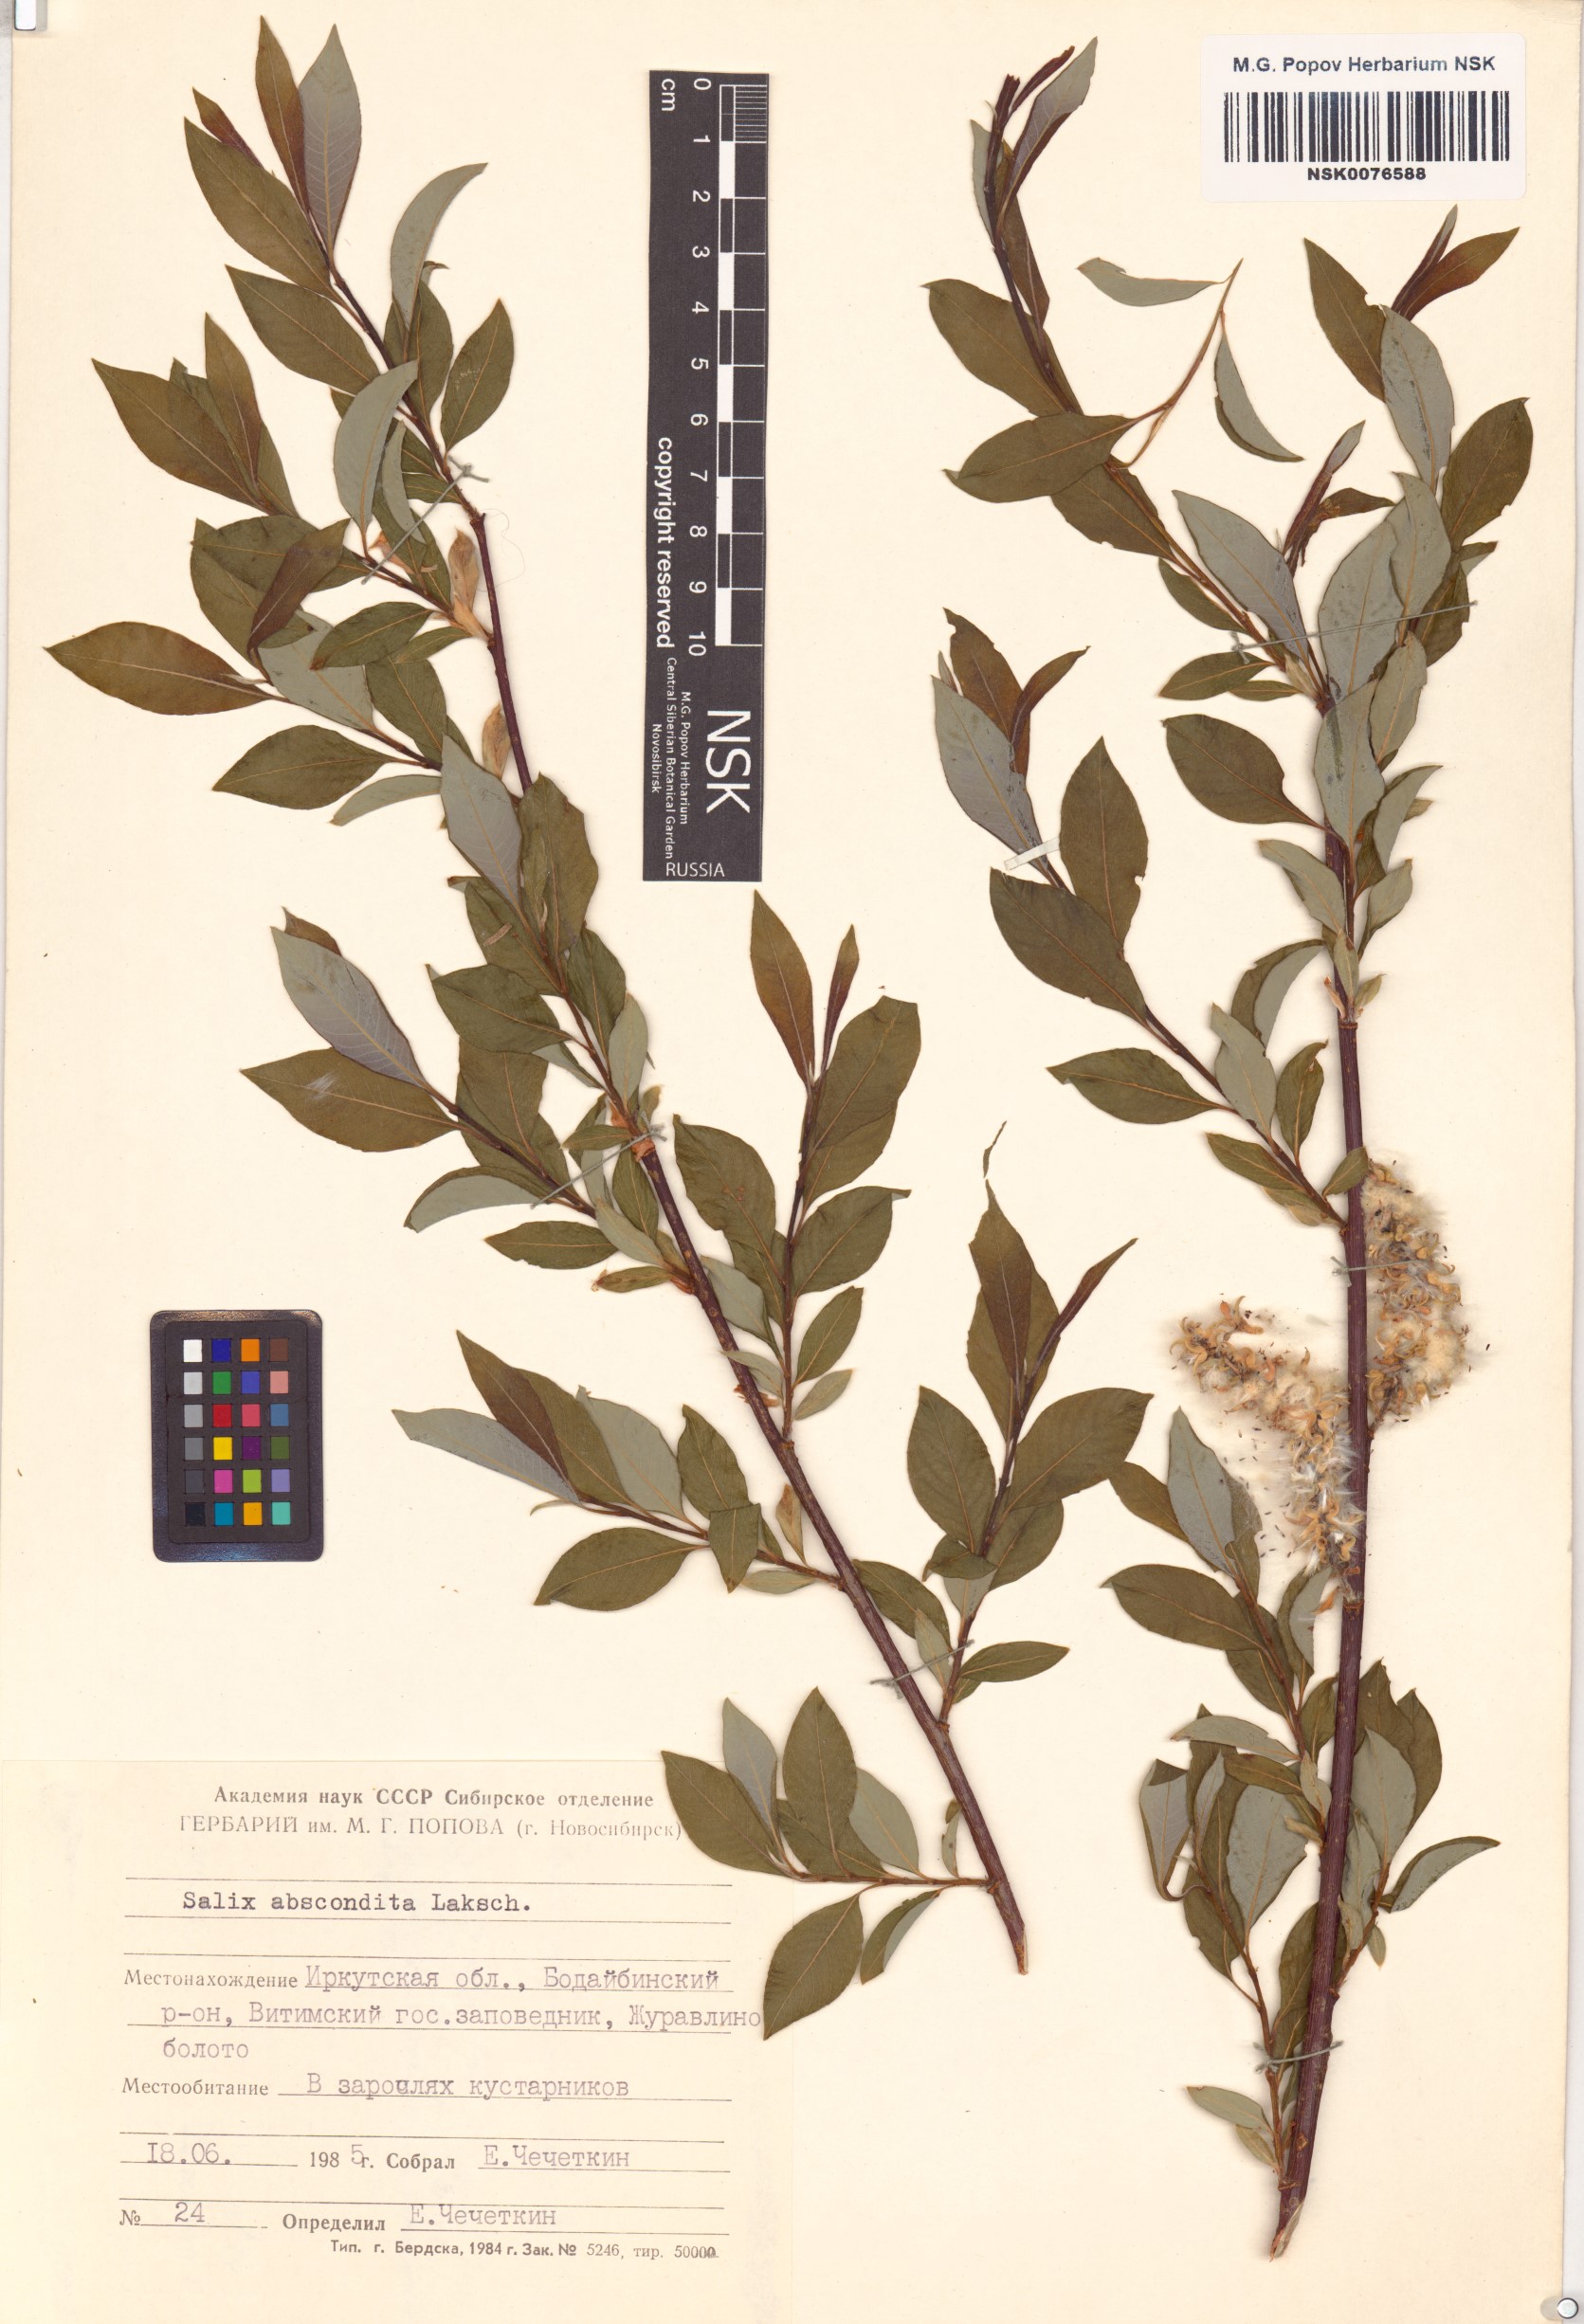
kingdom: Plantae
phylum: Tracheophyta
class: Magnoliopsida
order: Malpighiales
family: Salicaceae
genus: Salix
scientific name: Salix abscondita
